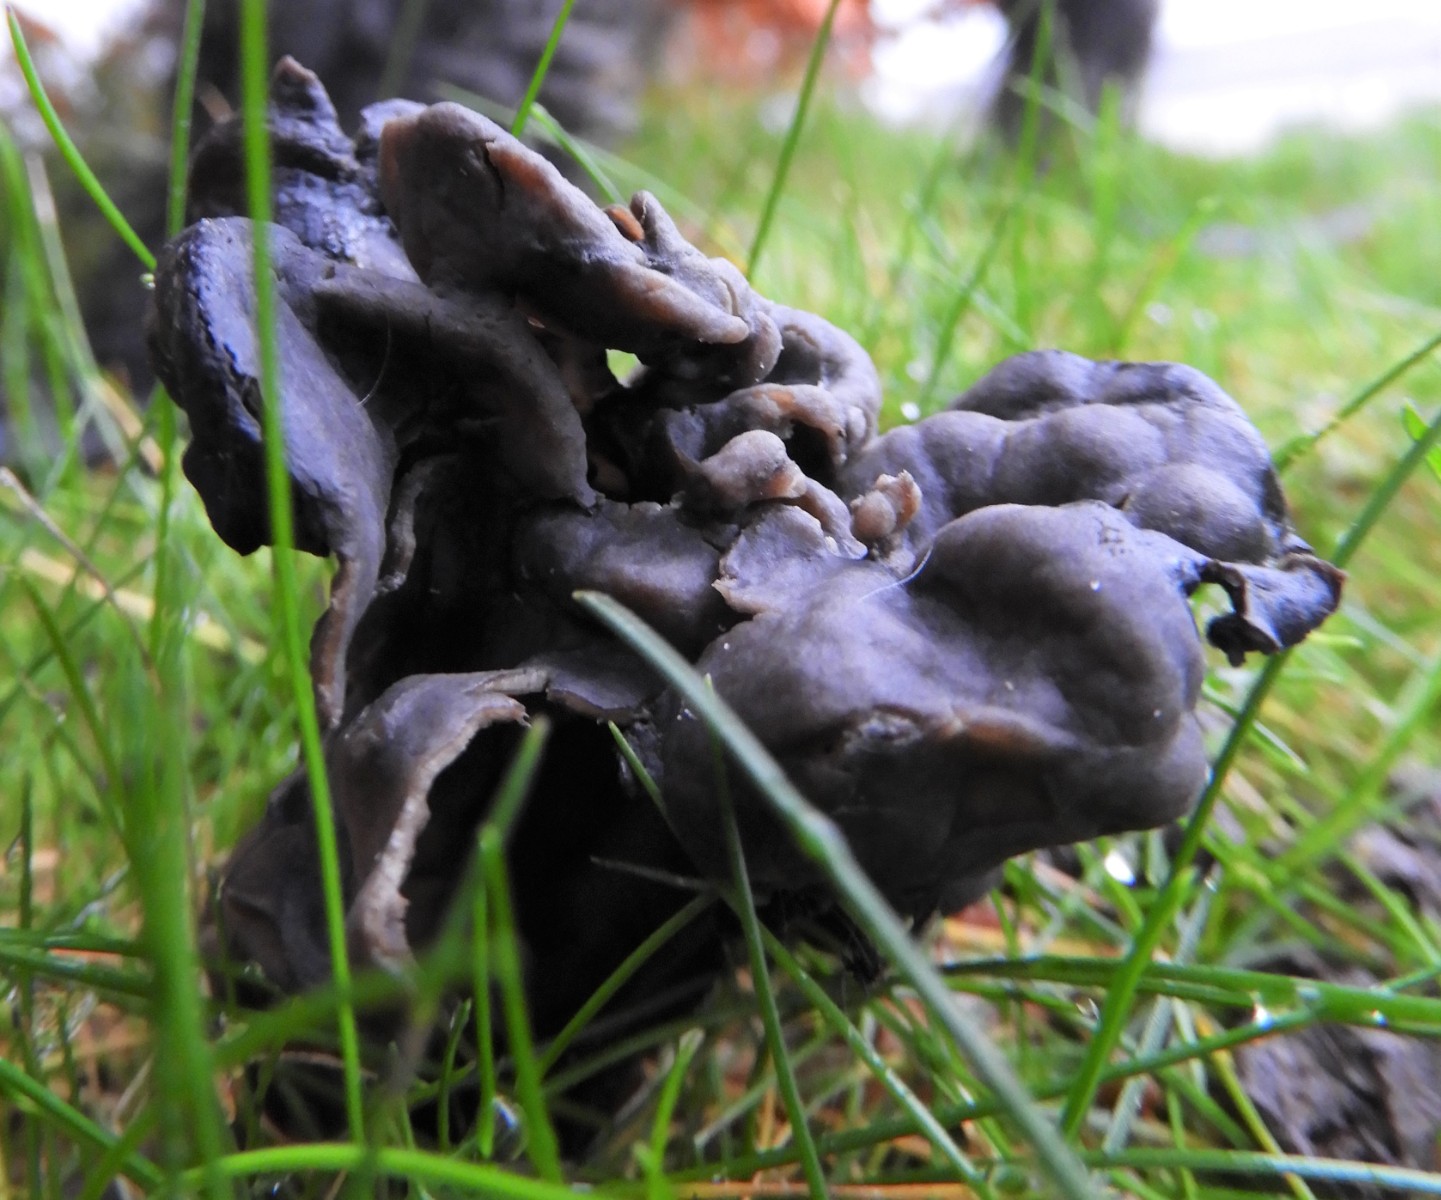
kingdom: Fungi
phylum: Ascomycota
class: Pezizomycetes
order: Pezizales
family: Helvellaceae
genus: Helvella
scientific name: Helvella lacunosa
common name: grubet foldhat
